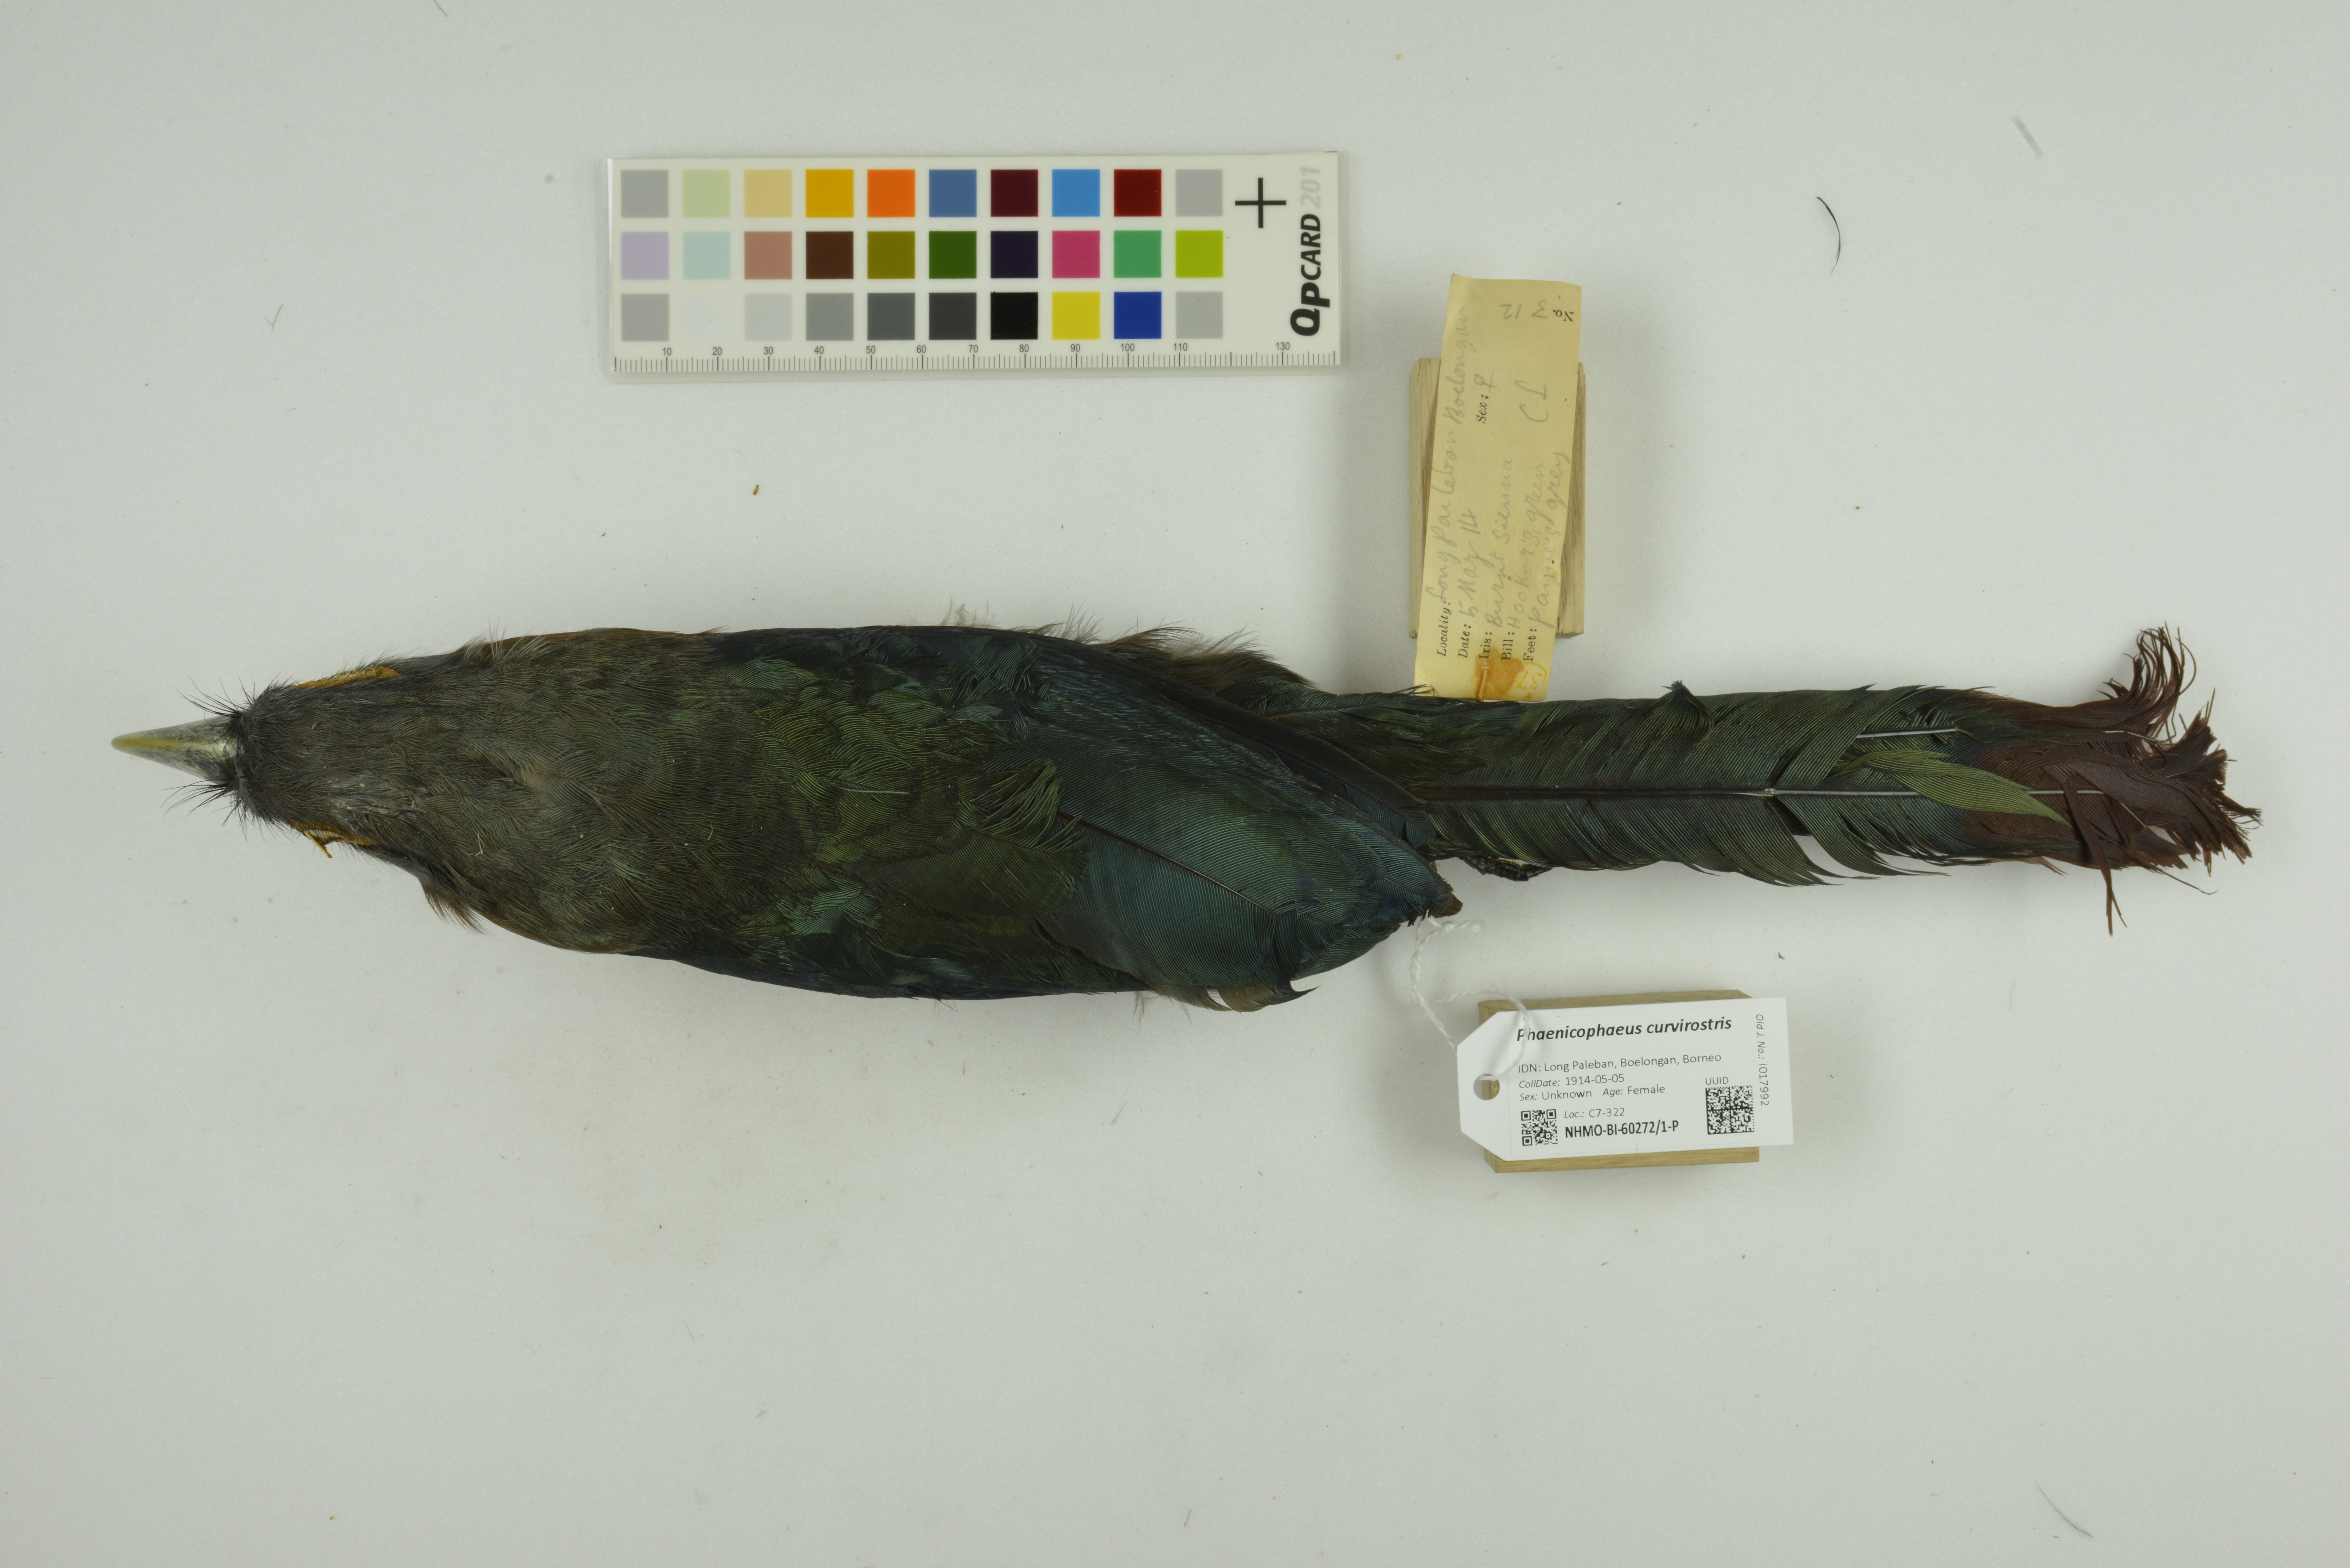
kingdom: Animalia
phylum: Chordata
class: Aves
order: Cuculiformes
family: Cuculidae
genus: Zanclostomus
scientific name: Zanclostomus curvirostris
